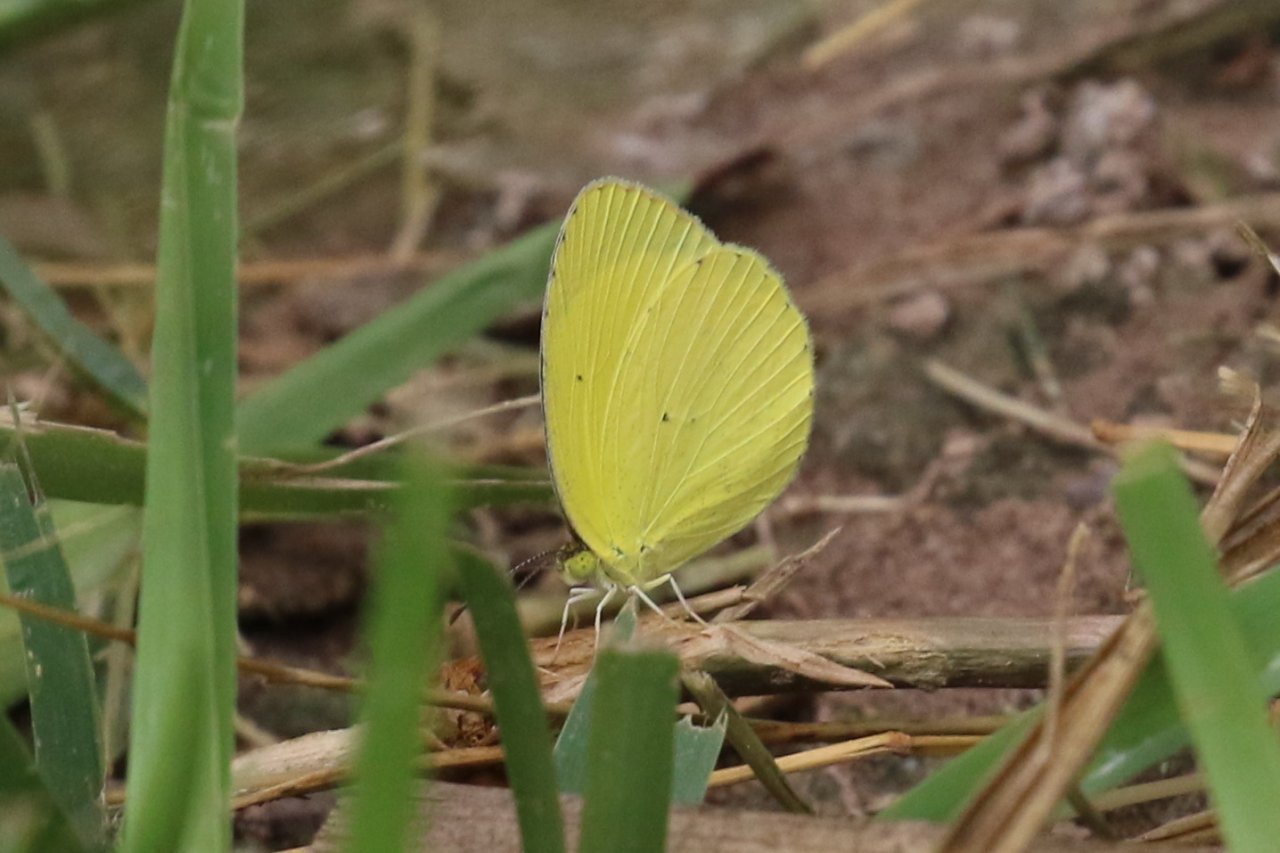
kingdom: Animalia
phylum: Arthropoda
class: Insecta
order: Lepidoptera
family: Pieridae
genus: Pyrisitia
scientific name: Pyrisitia nise
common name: Mimosa Yellow
